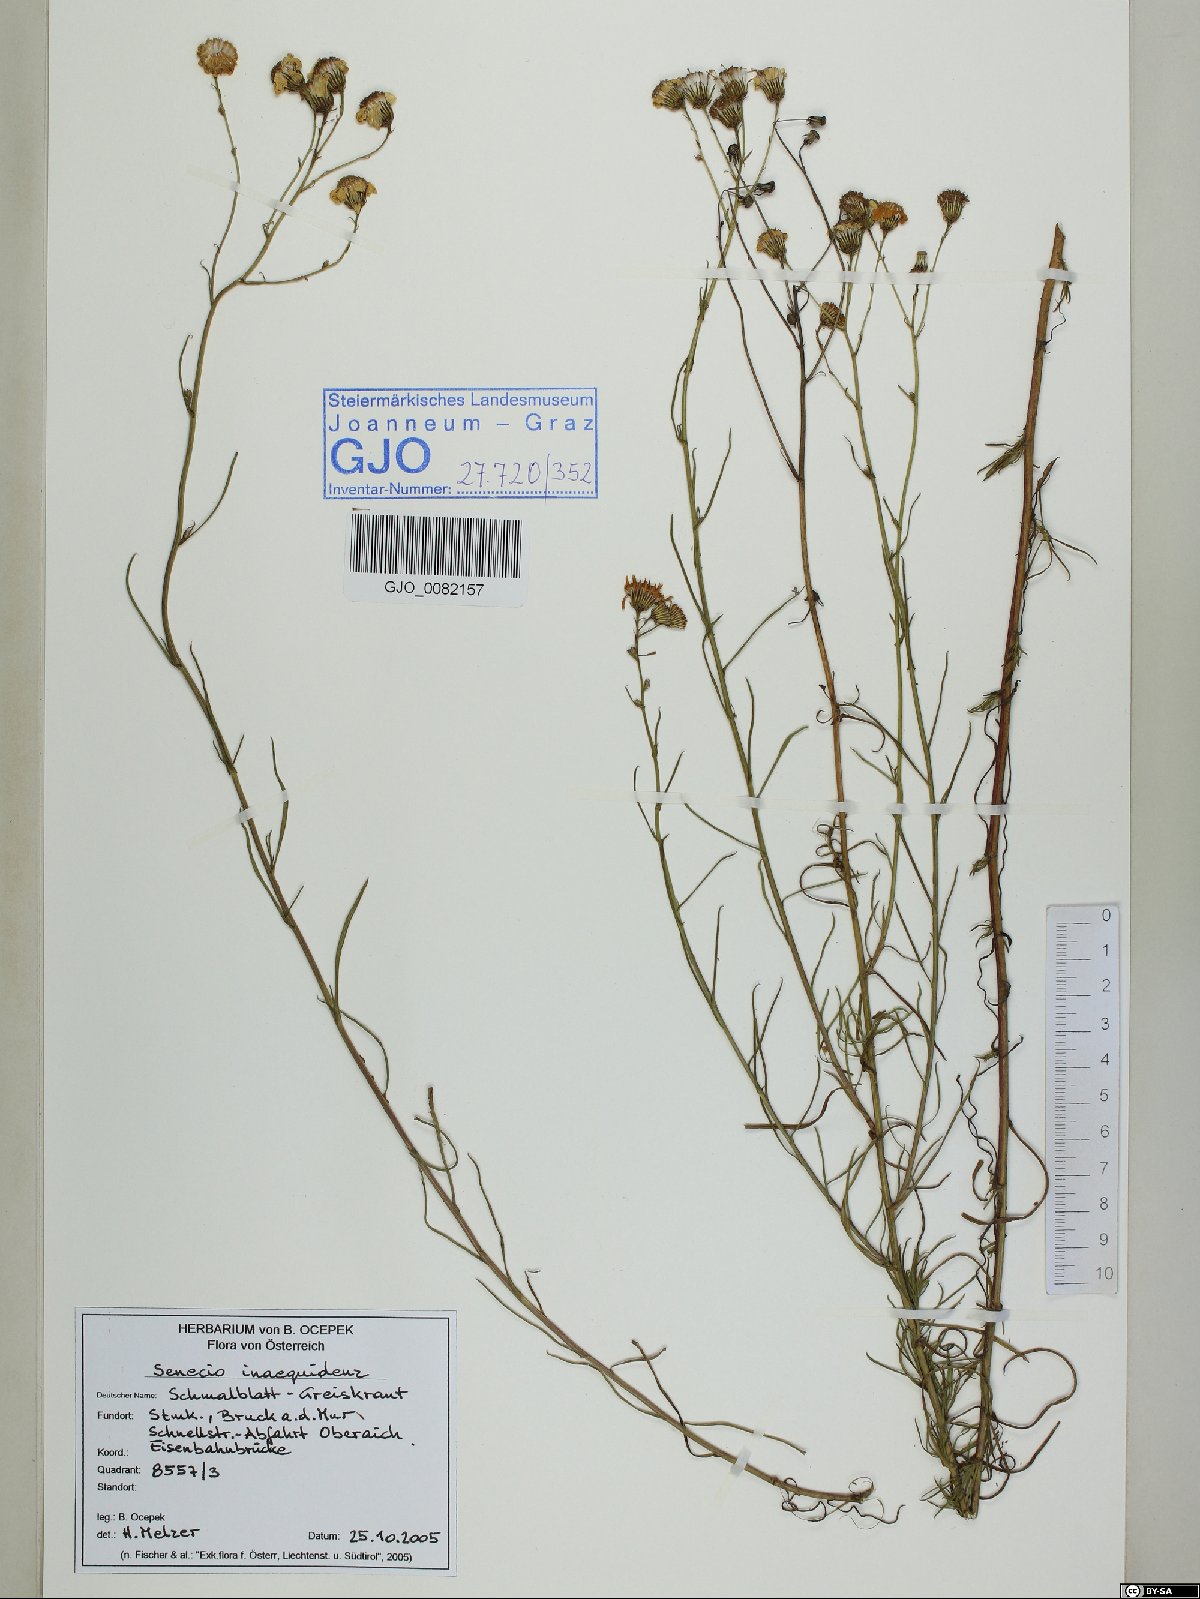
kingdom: Plantae
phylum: Tracheophyta
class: Magnoliopsida
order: Asterales
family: Asteraceae
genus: Senecio
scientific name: Senecio inaequidens
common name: Narrow-leaved ragwort
